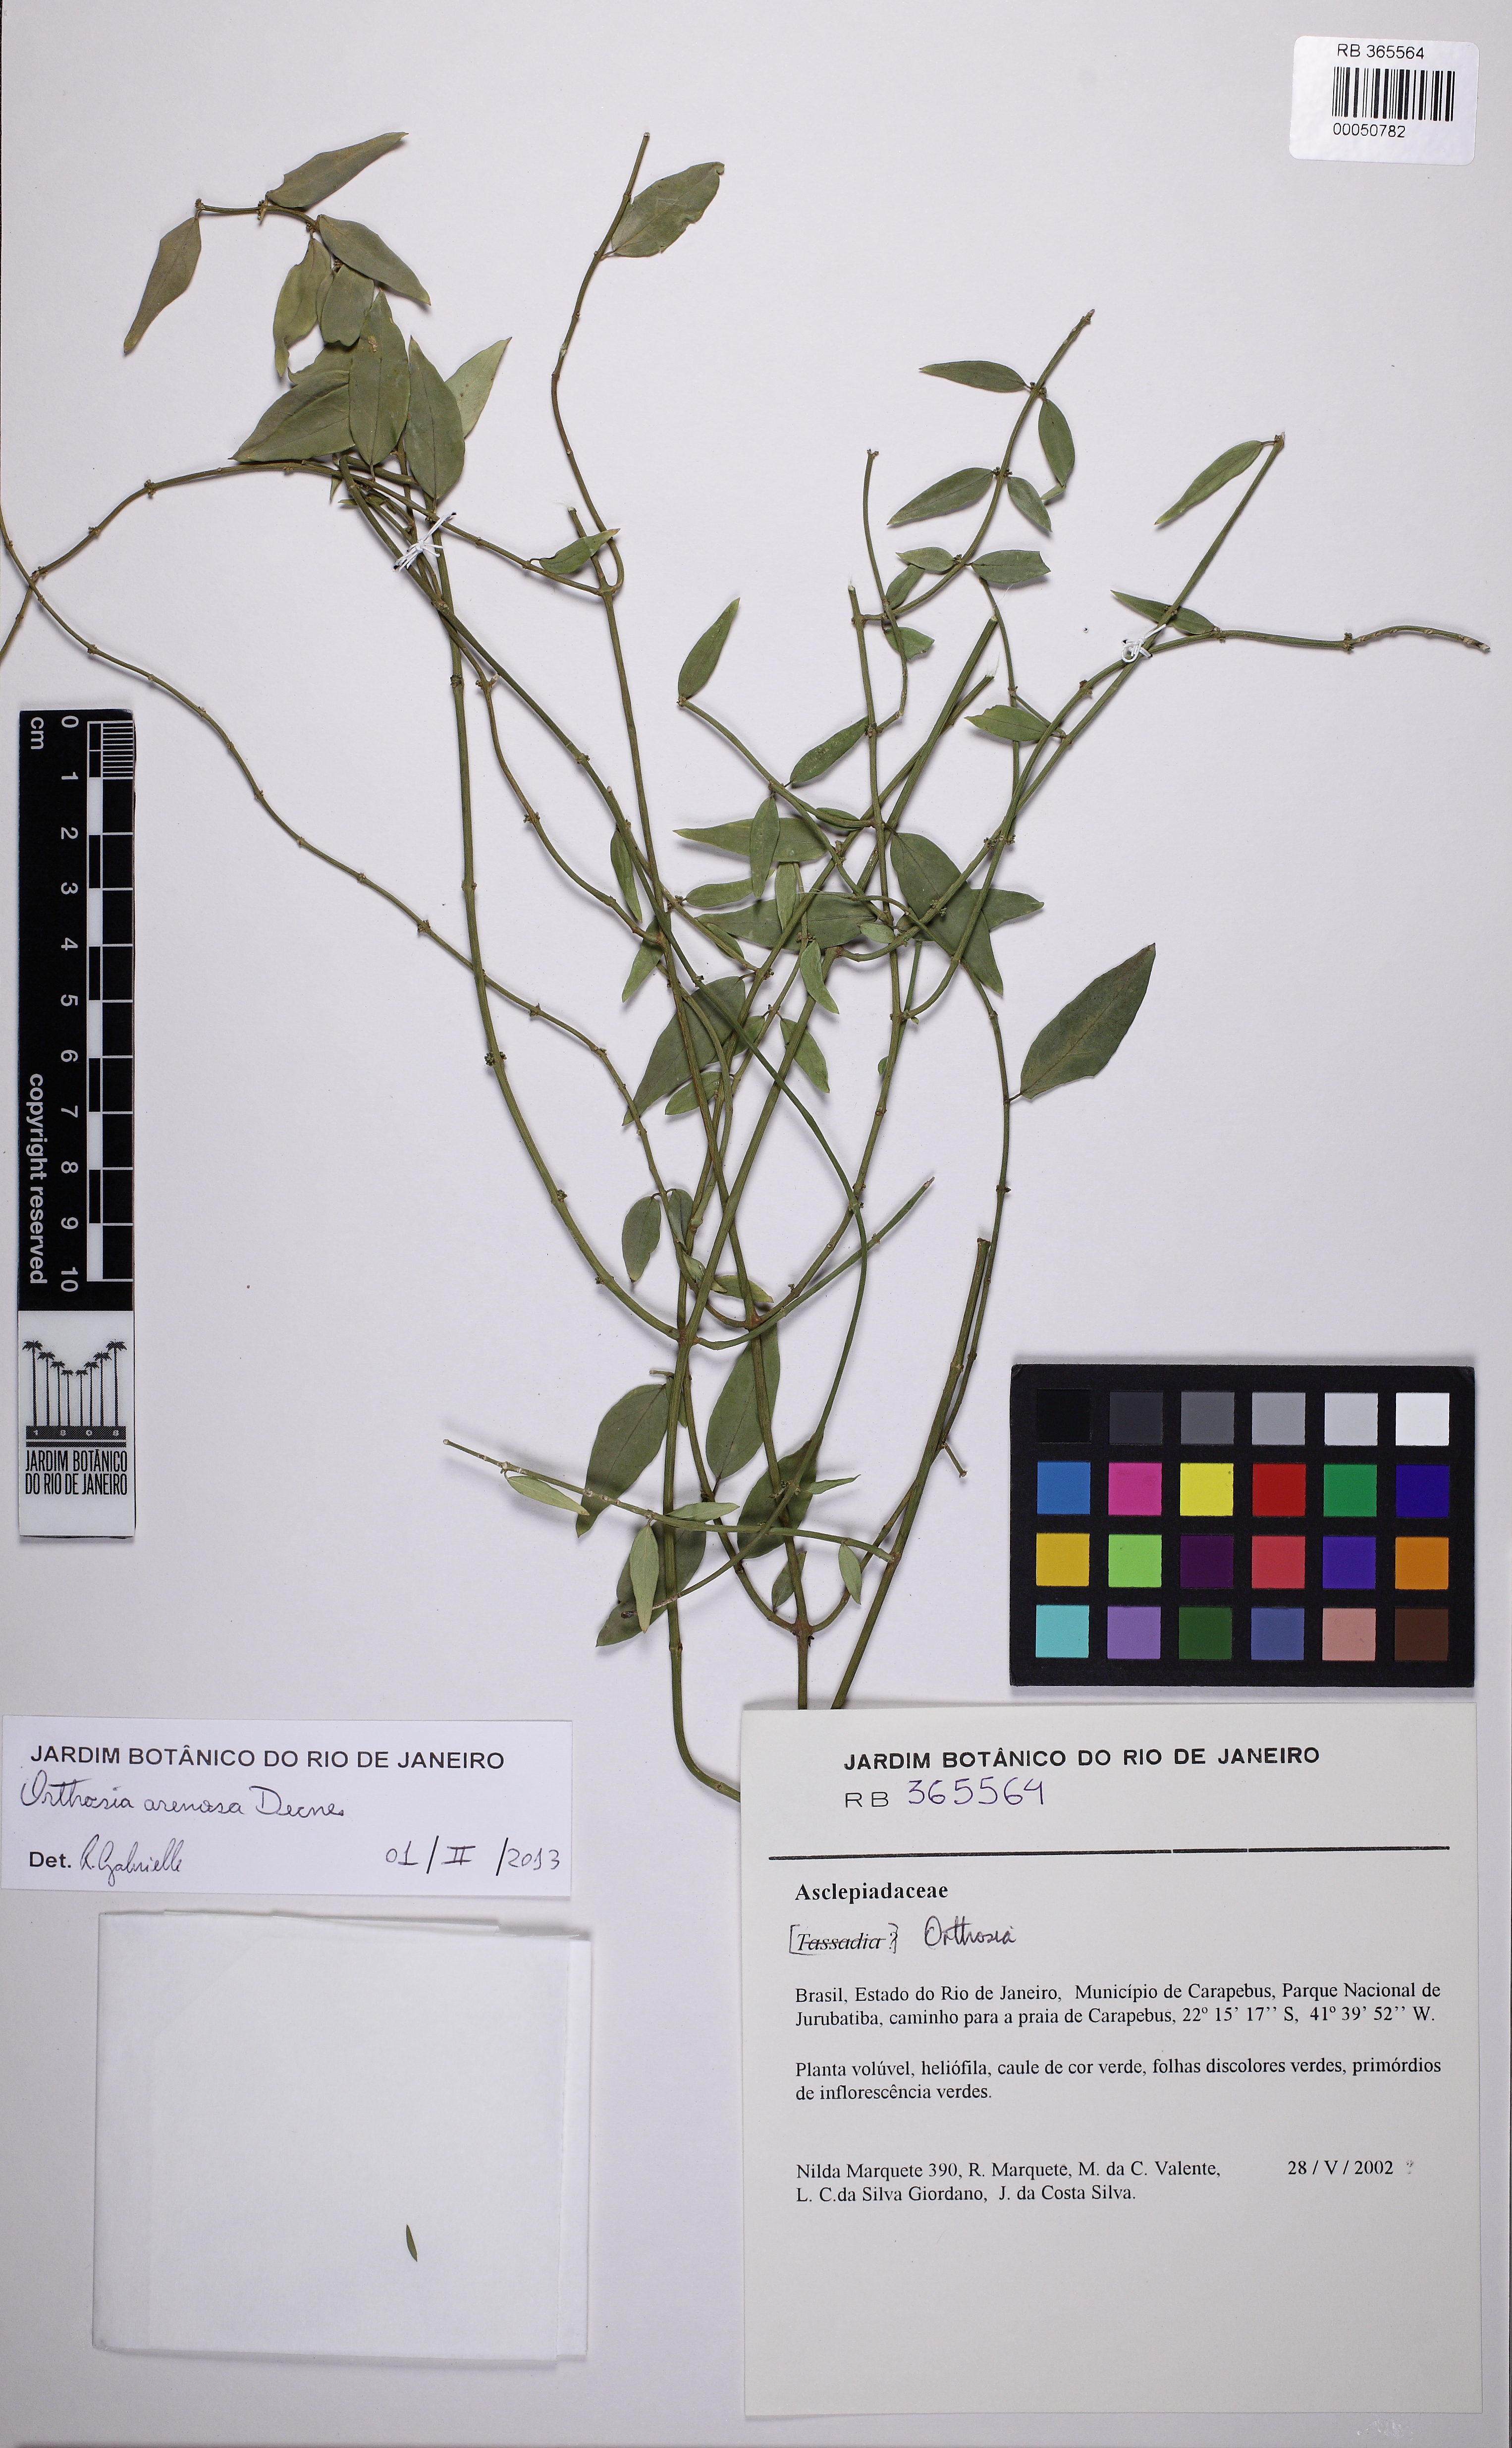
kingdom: Plantae
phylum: Tracheophyta
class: Magnoliopsida
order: Gentianales
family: Apocynaceae
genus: Orthosia
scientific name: Orthosia arenosa
